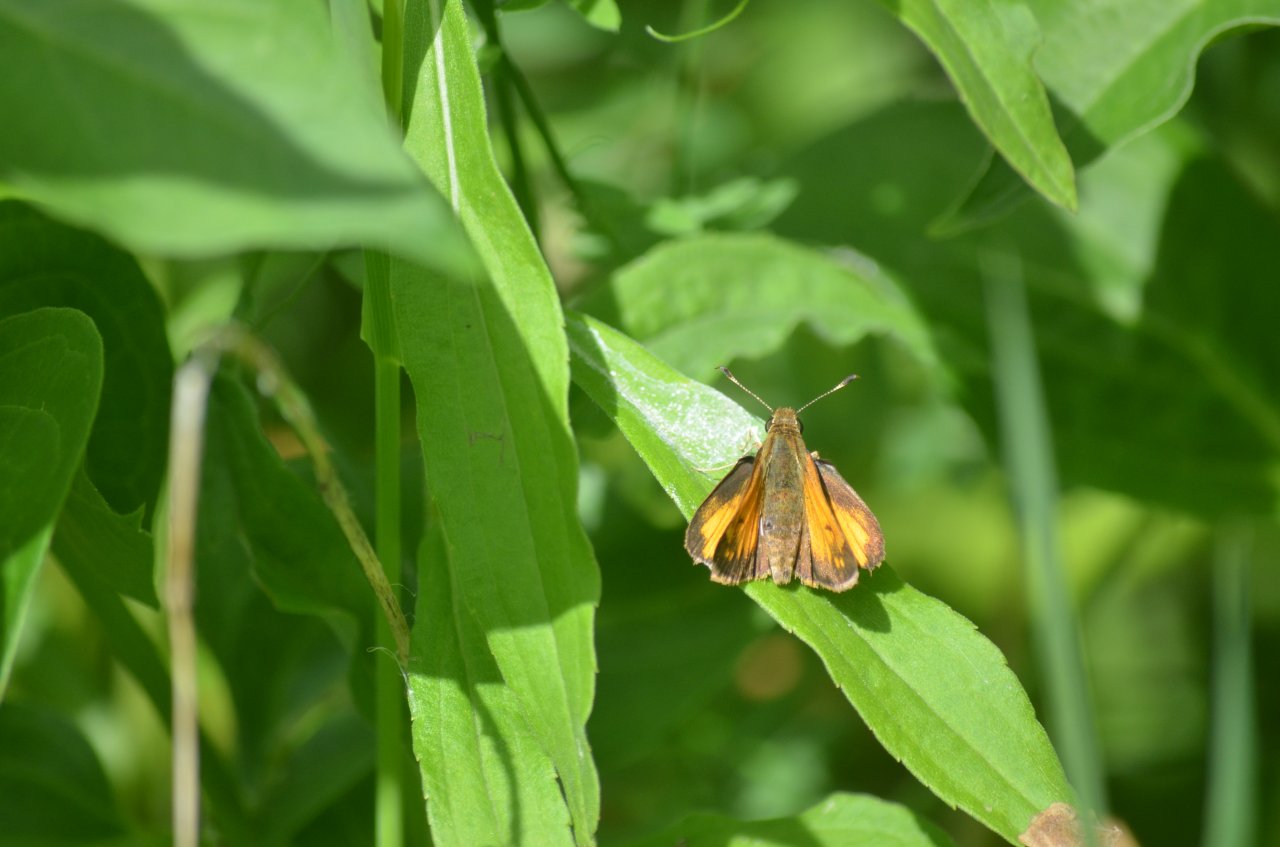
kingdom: Animalia
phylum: Arthropoda
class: Insecta
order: Lepidoptera
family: Hesperiidae
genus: Lon
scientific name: Lon hobomok
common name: Hobomok Skipper
